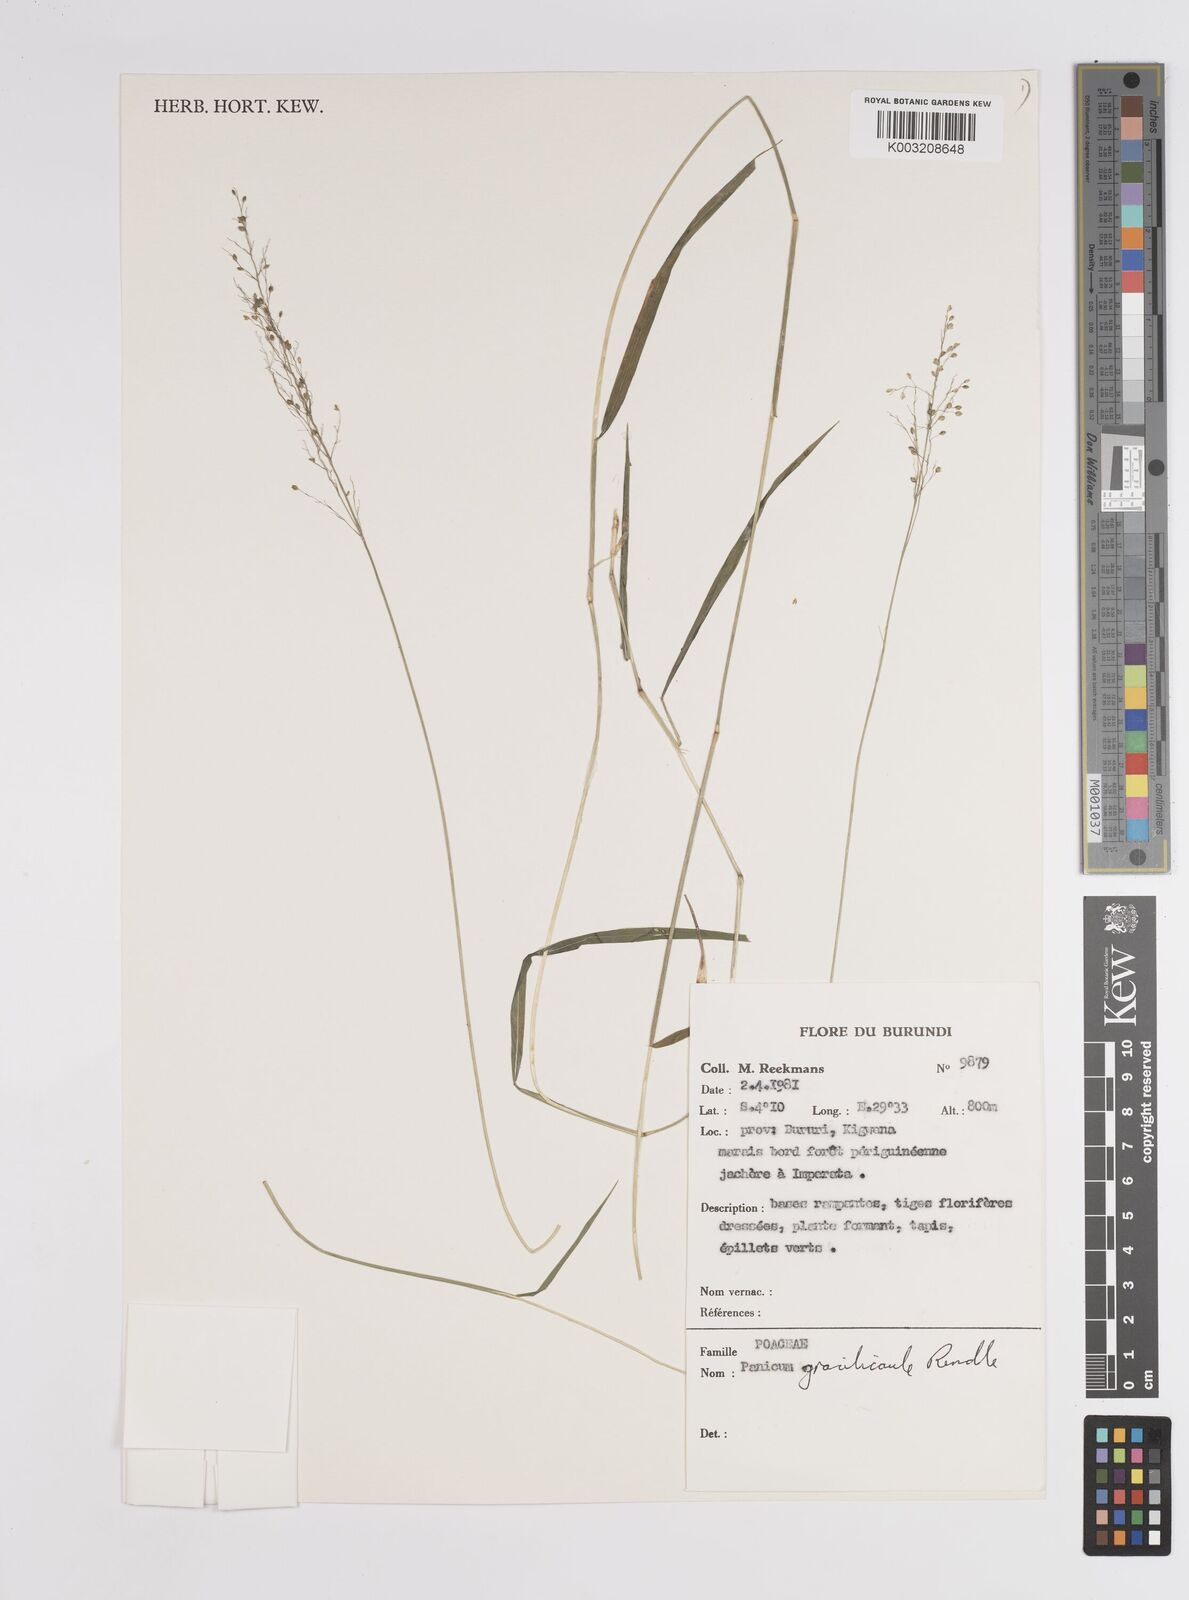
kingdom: Plantae
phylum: Tracheophyta
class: Liliopsida
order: Poales
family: Poaceae
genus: Panicum
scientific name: Panicum
